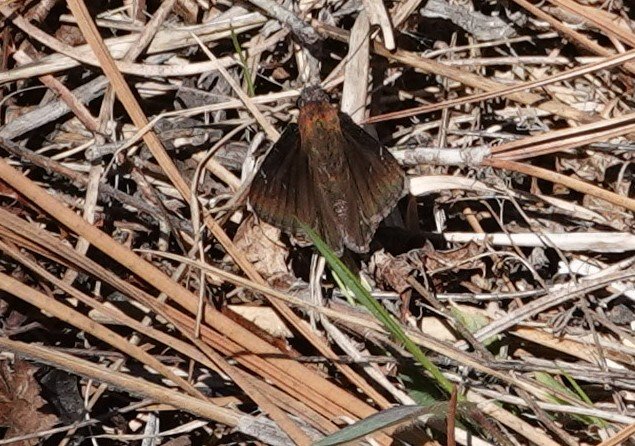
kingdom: Animalia
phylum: Arthropoda
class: Insecta
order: Lepidoptera
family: Hesperiidae
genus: Autochton
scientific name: Autochton
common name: Northern Cloudywing
